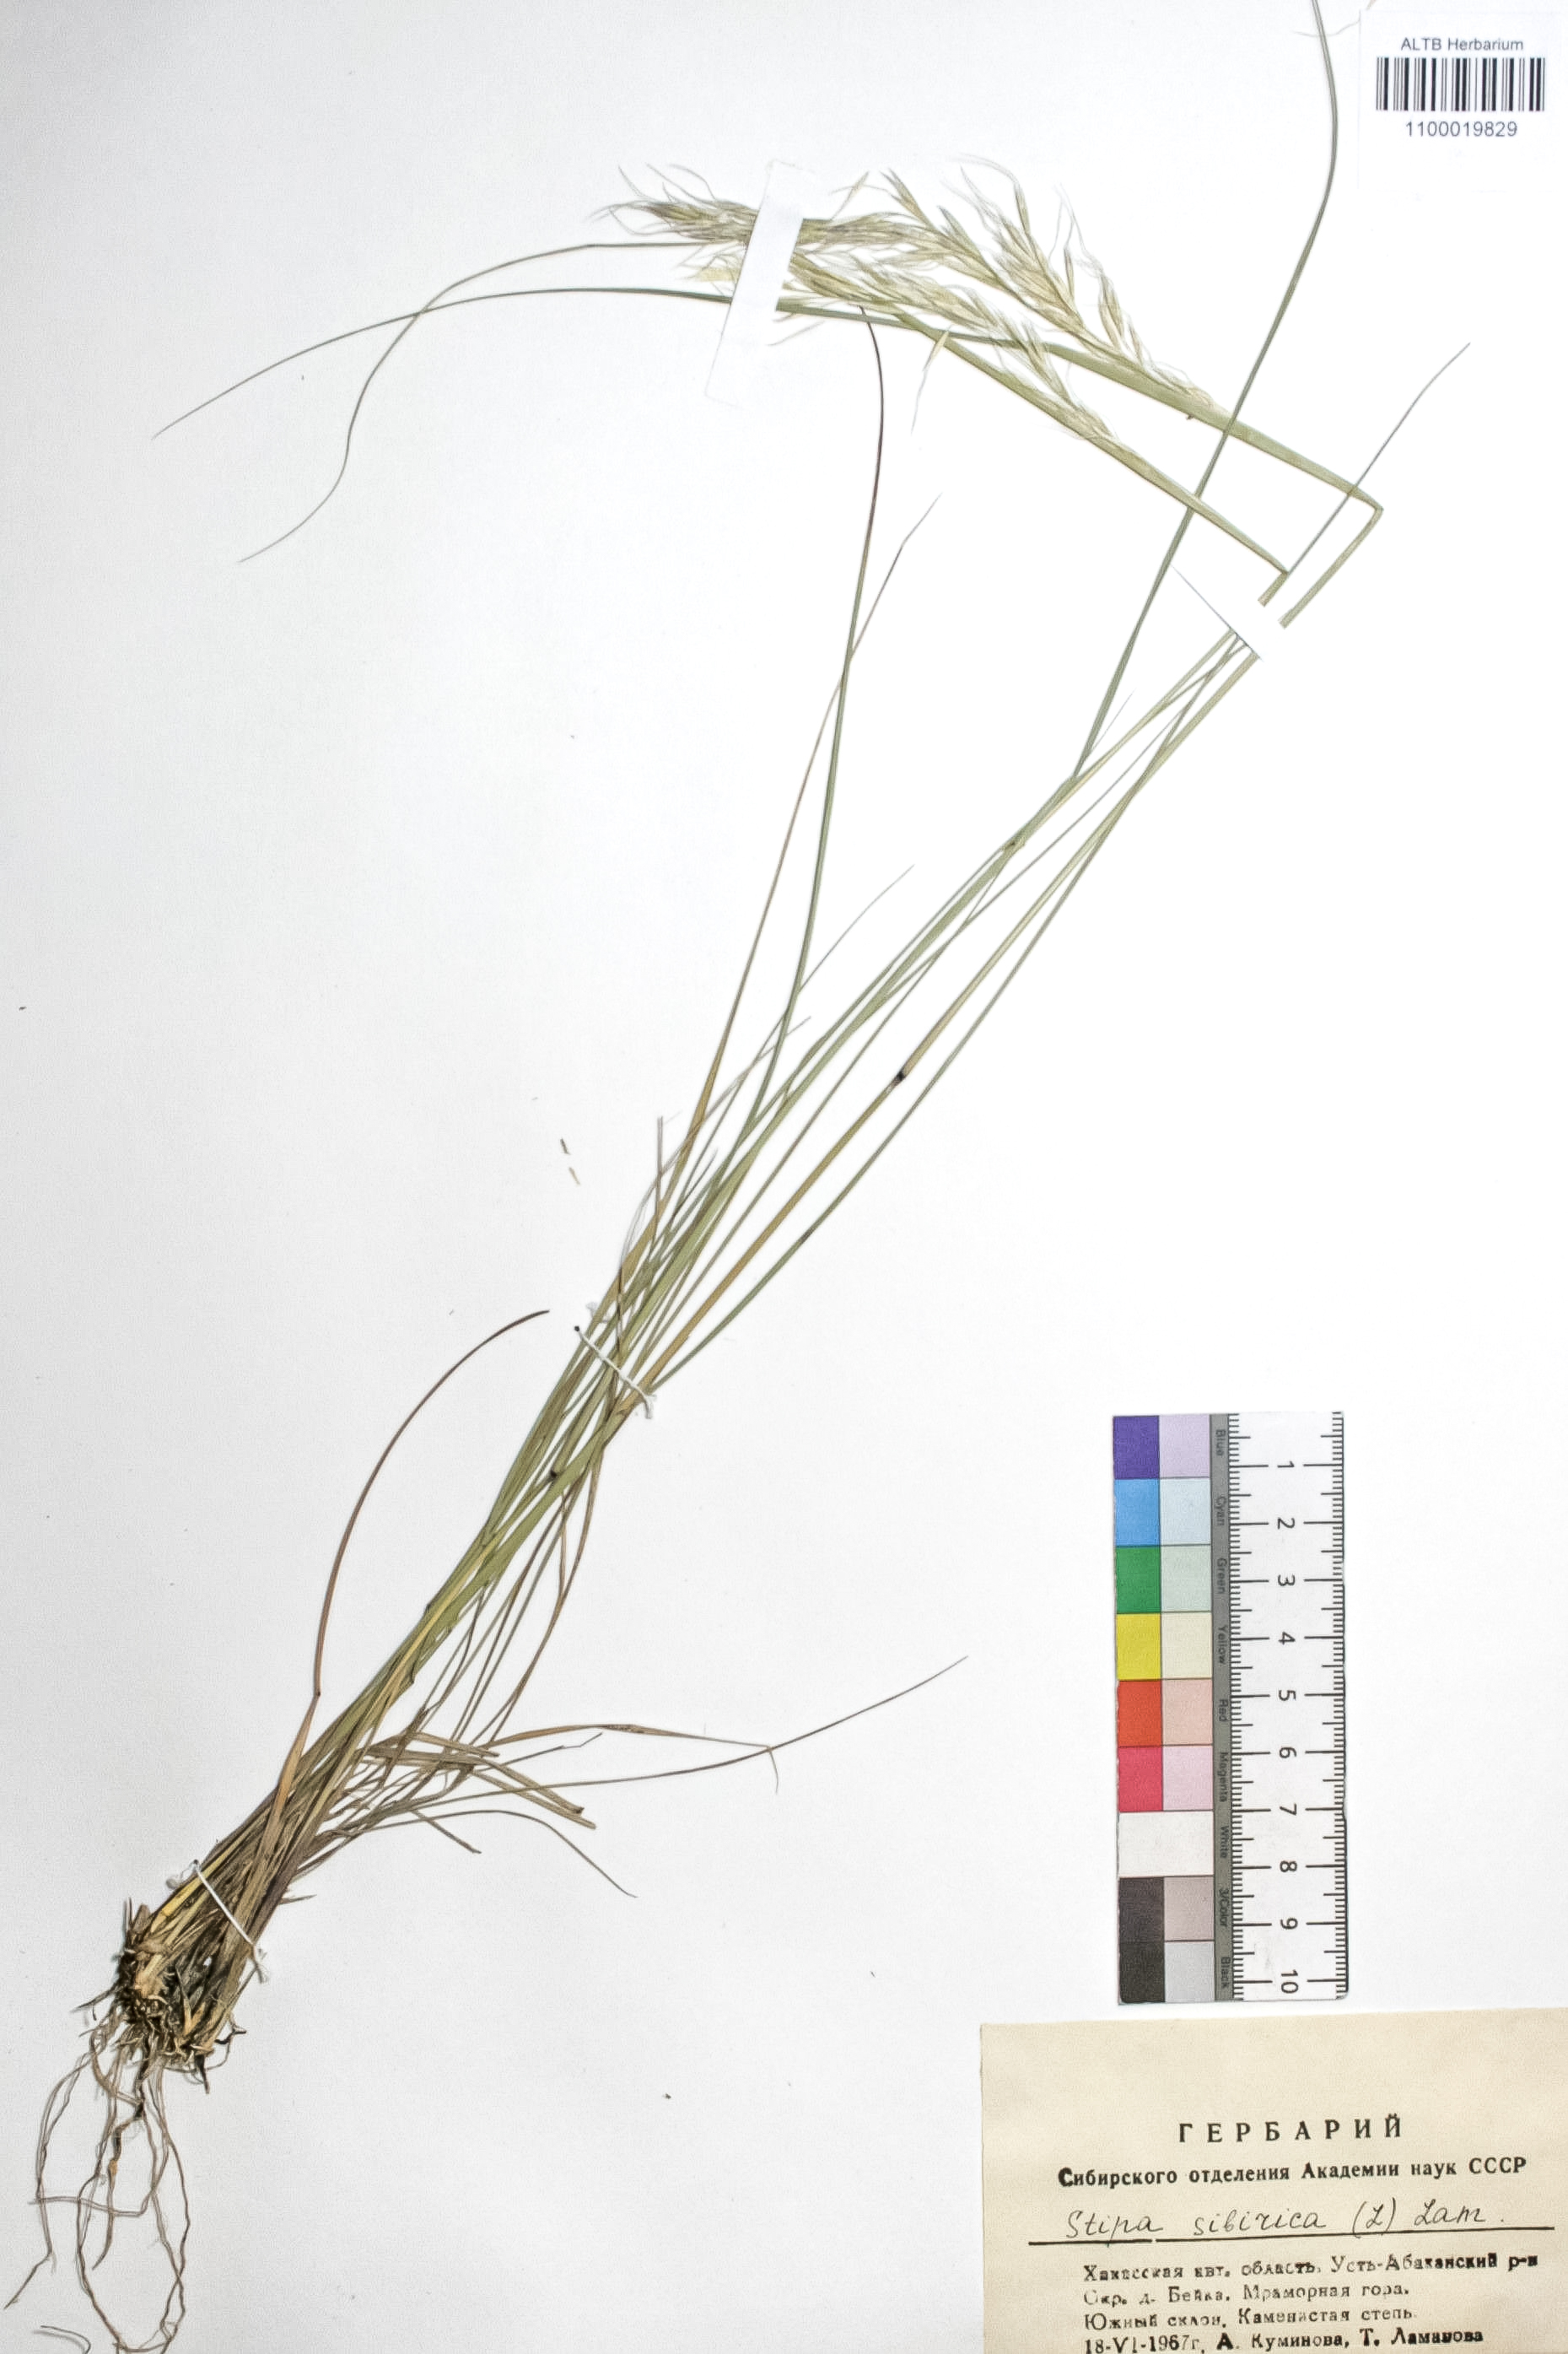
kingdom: Plantae
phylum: Tracheophyta
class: Liliopsida
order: Poales
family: Poaceae
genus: Achnatherum
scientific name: Achnatherum sibiricum
